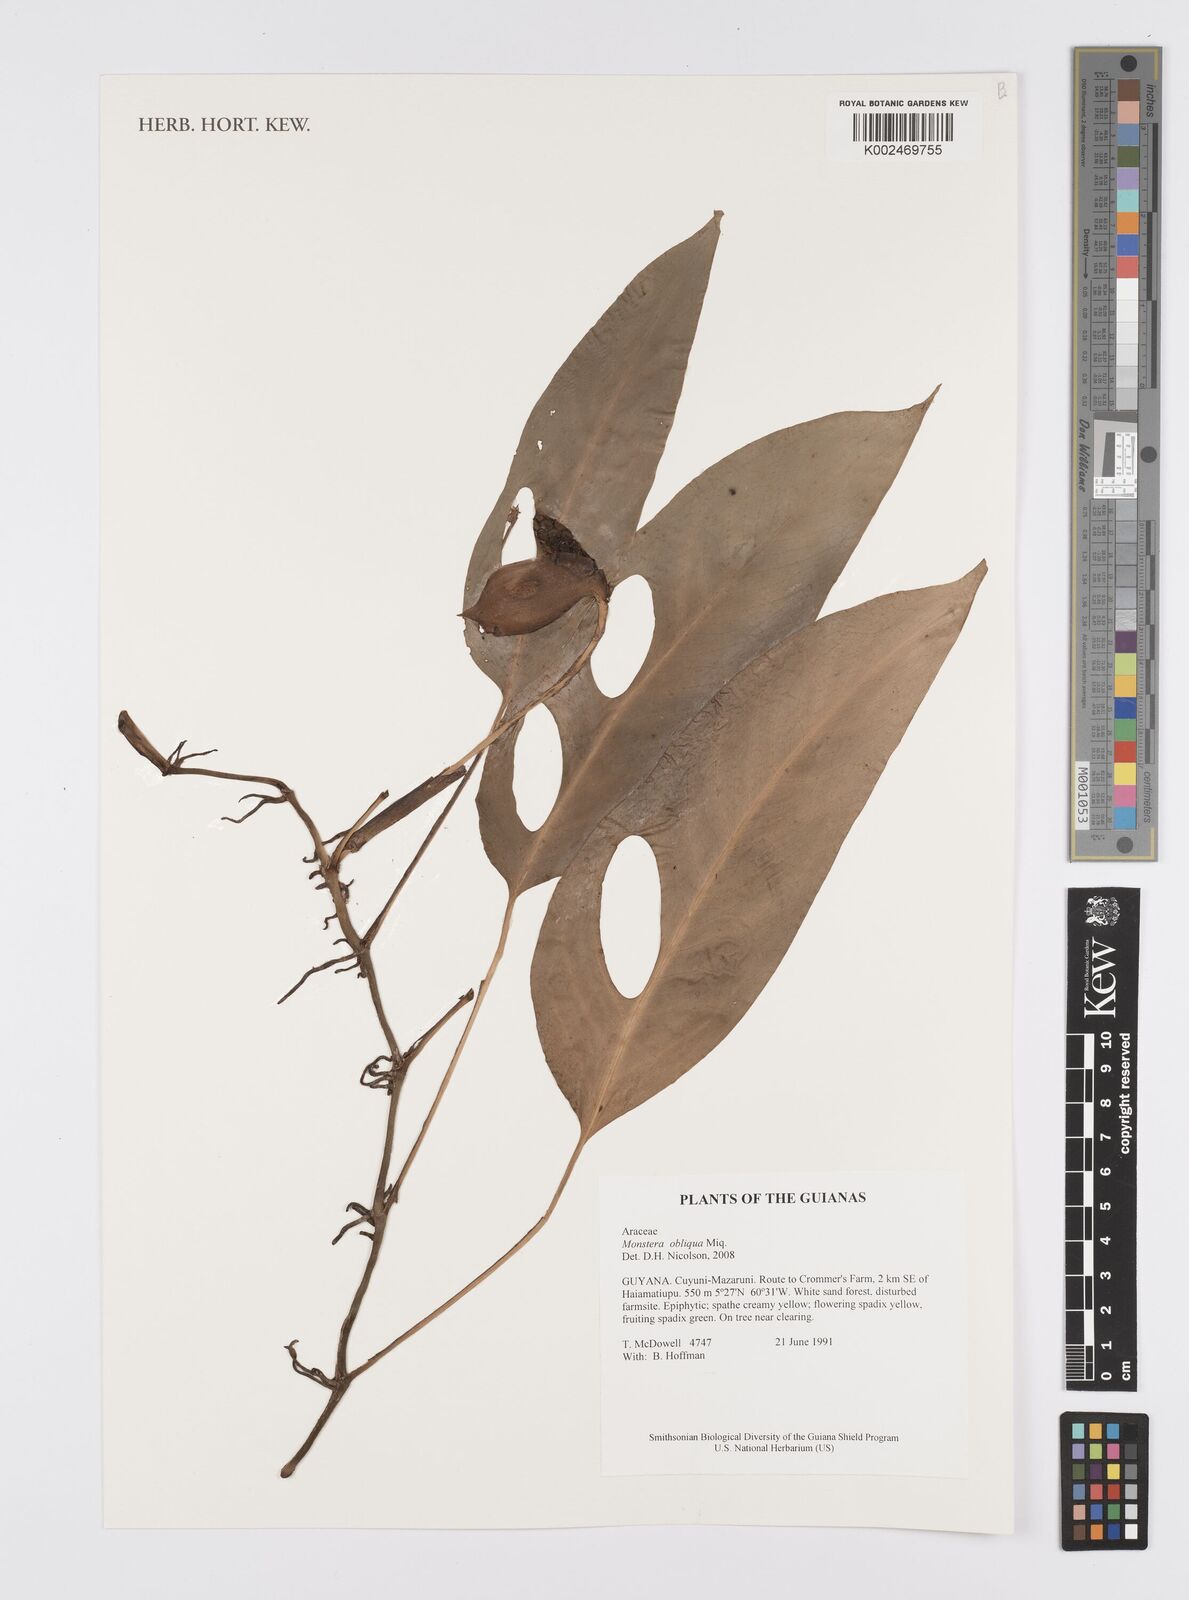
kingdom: Plantae
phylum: Tracheophyta
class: Liliopsida
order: Alismatales
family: Araceae
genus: Monstera
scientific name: Monstera obliqua
